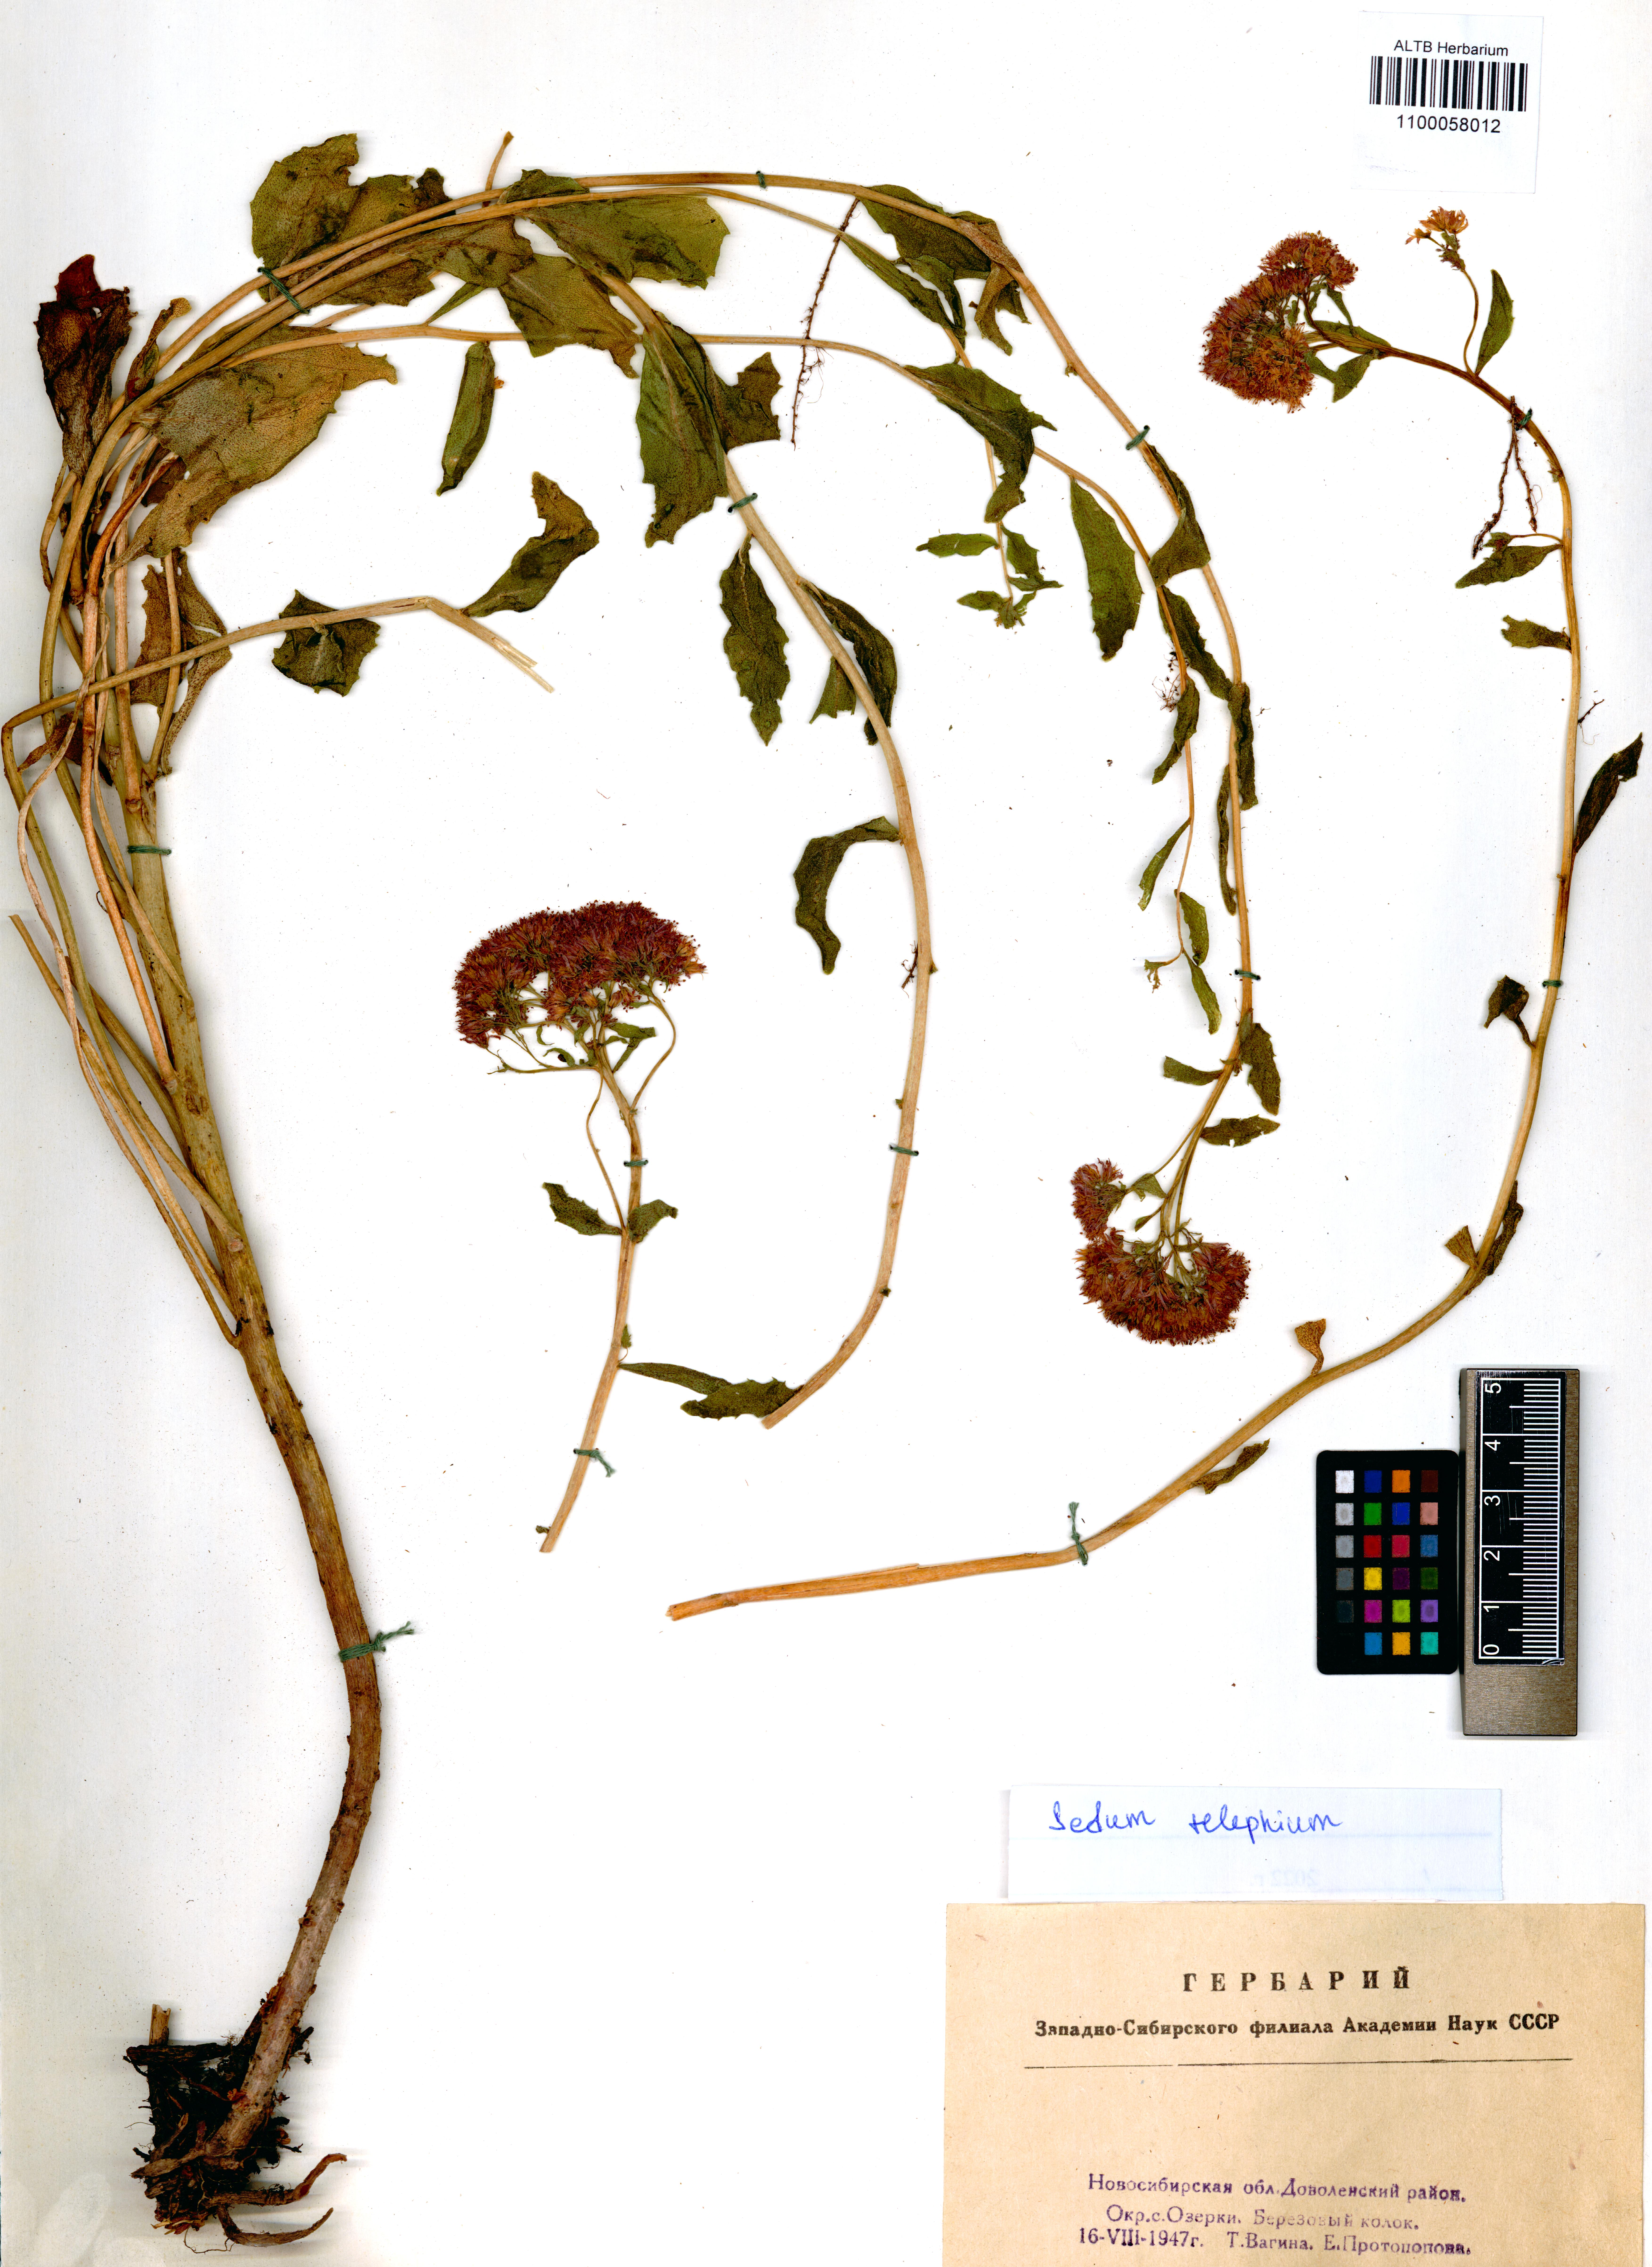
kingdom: Plantae
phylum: Tracheophyta
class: Magnoliopsida
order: Saxifragales
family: Crassulaceae
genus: Hylotelephium
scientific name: Hylotelephium telephium
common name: Live-forever
